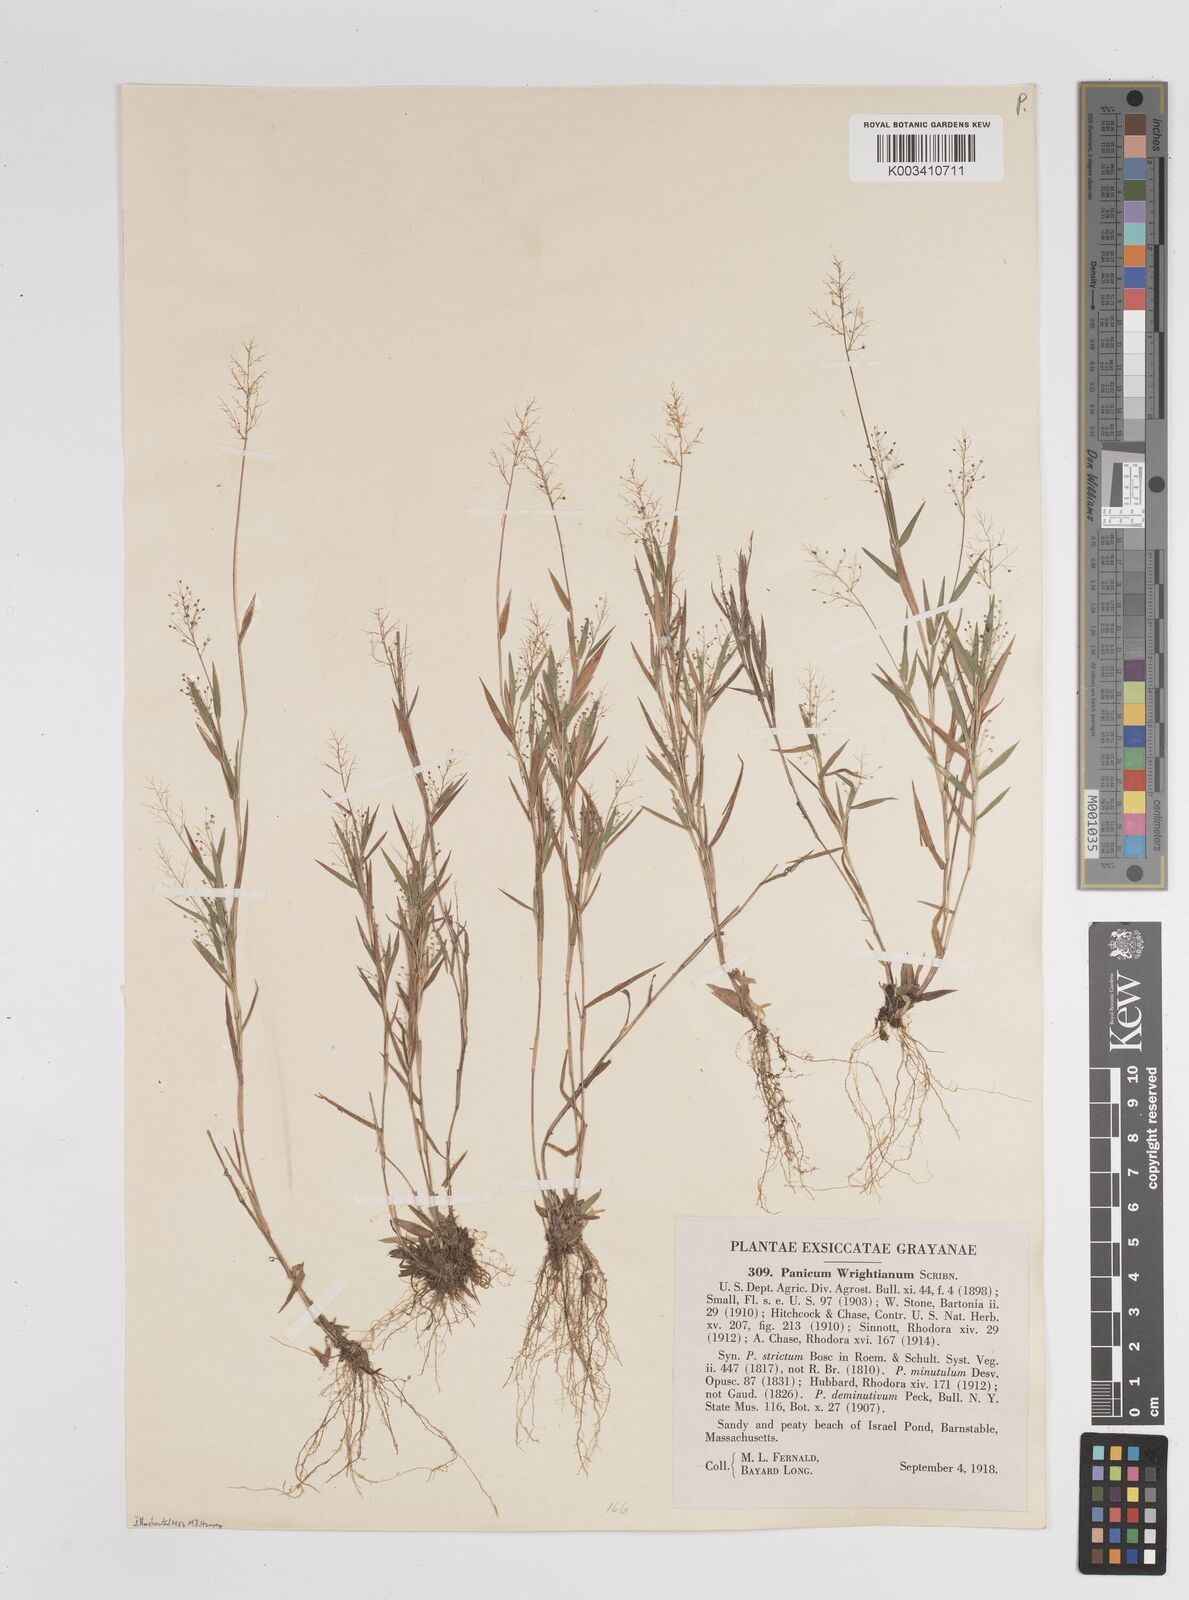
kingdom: Plantae
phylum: Tracheophyta
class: Liliopsida
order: Poales
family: Poaceae
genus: Dichanthelium
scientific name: Dichanthelium wrightianum
